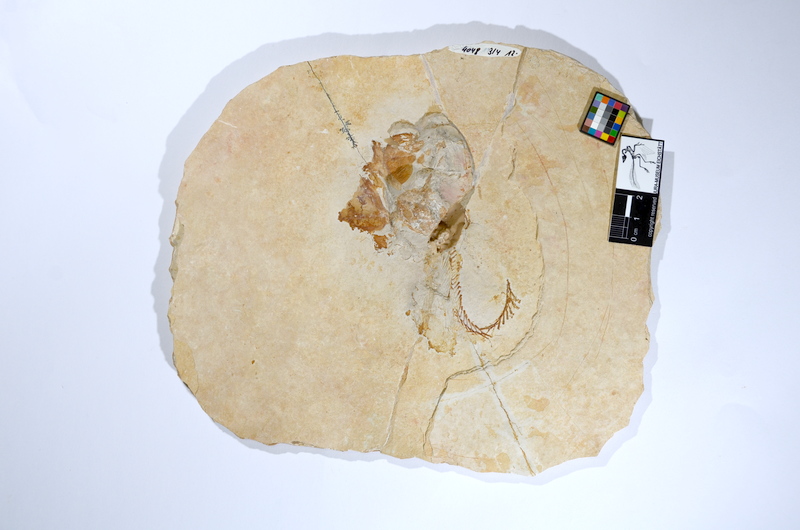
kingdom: Animalia
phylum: Chordata
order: Amiiformes
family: Caturidae
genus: Caturus
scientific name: Caturus
